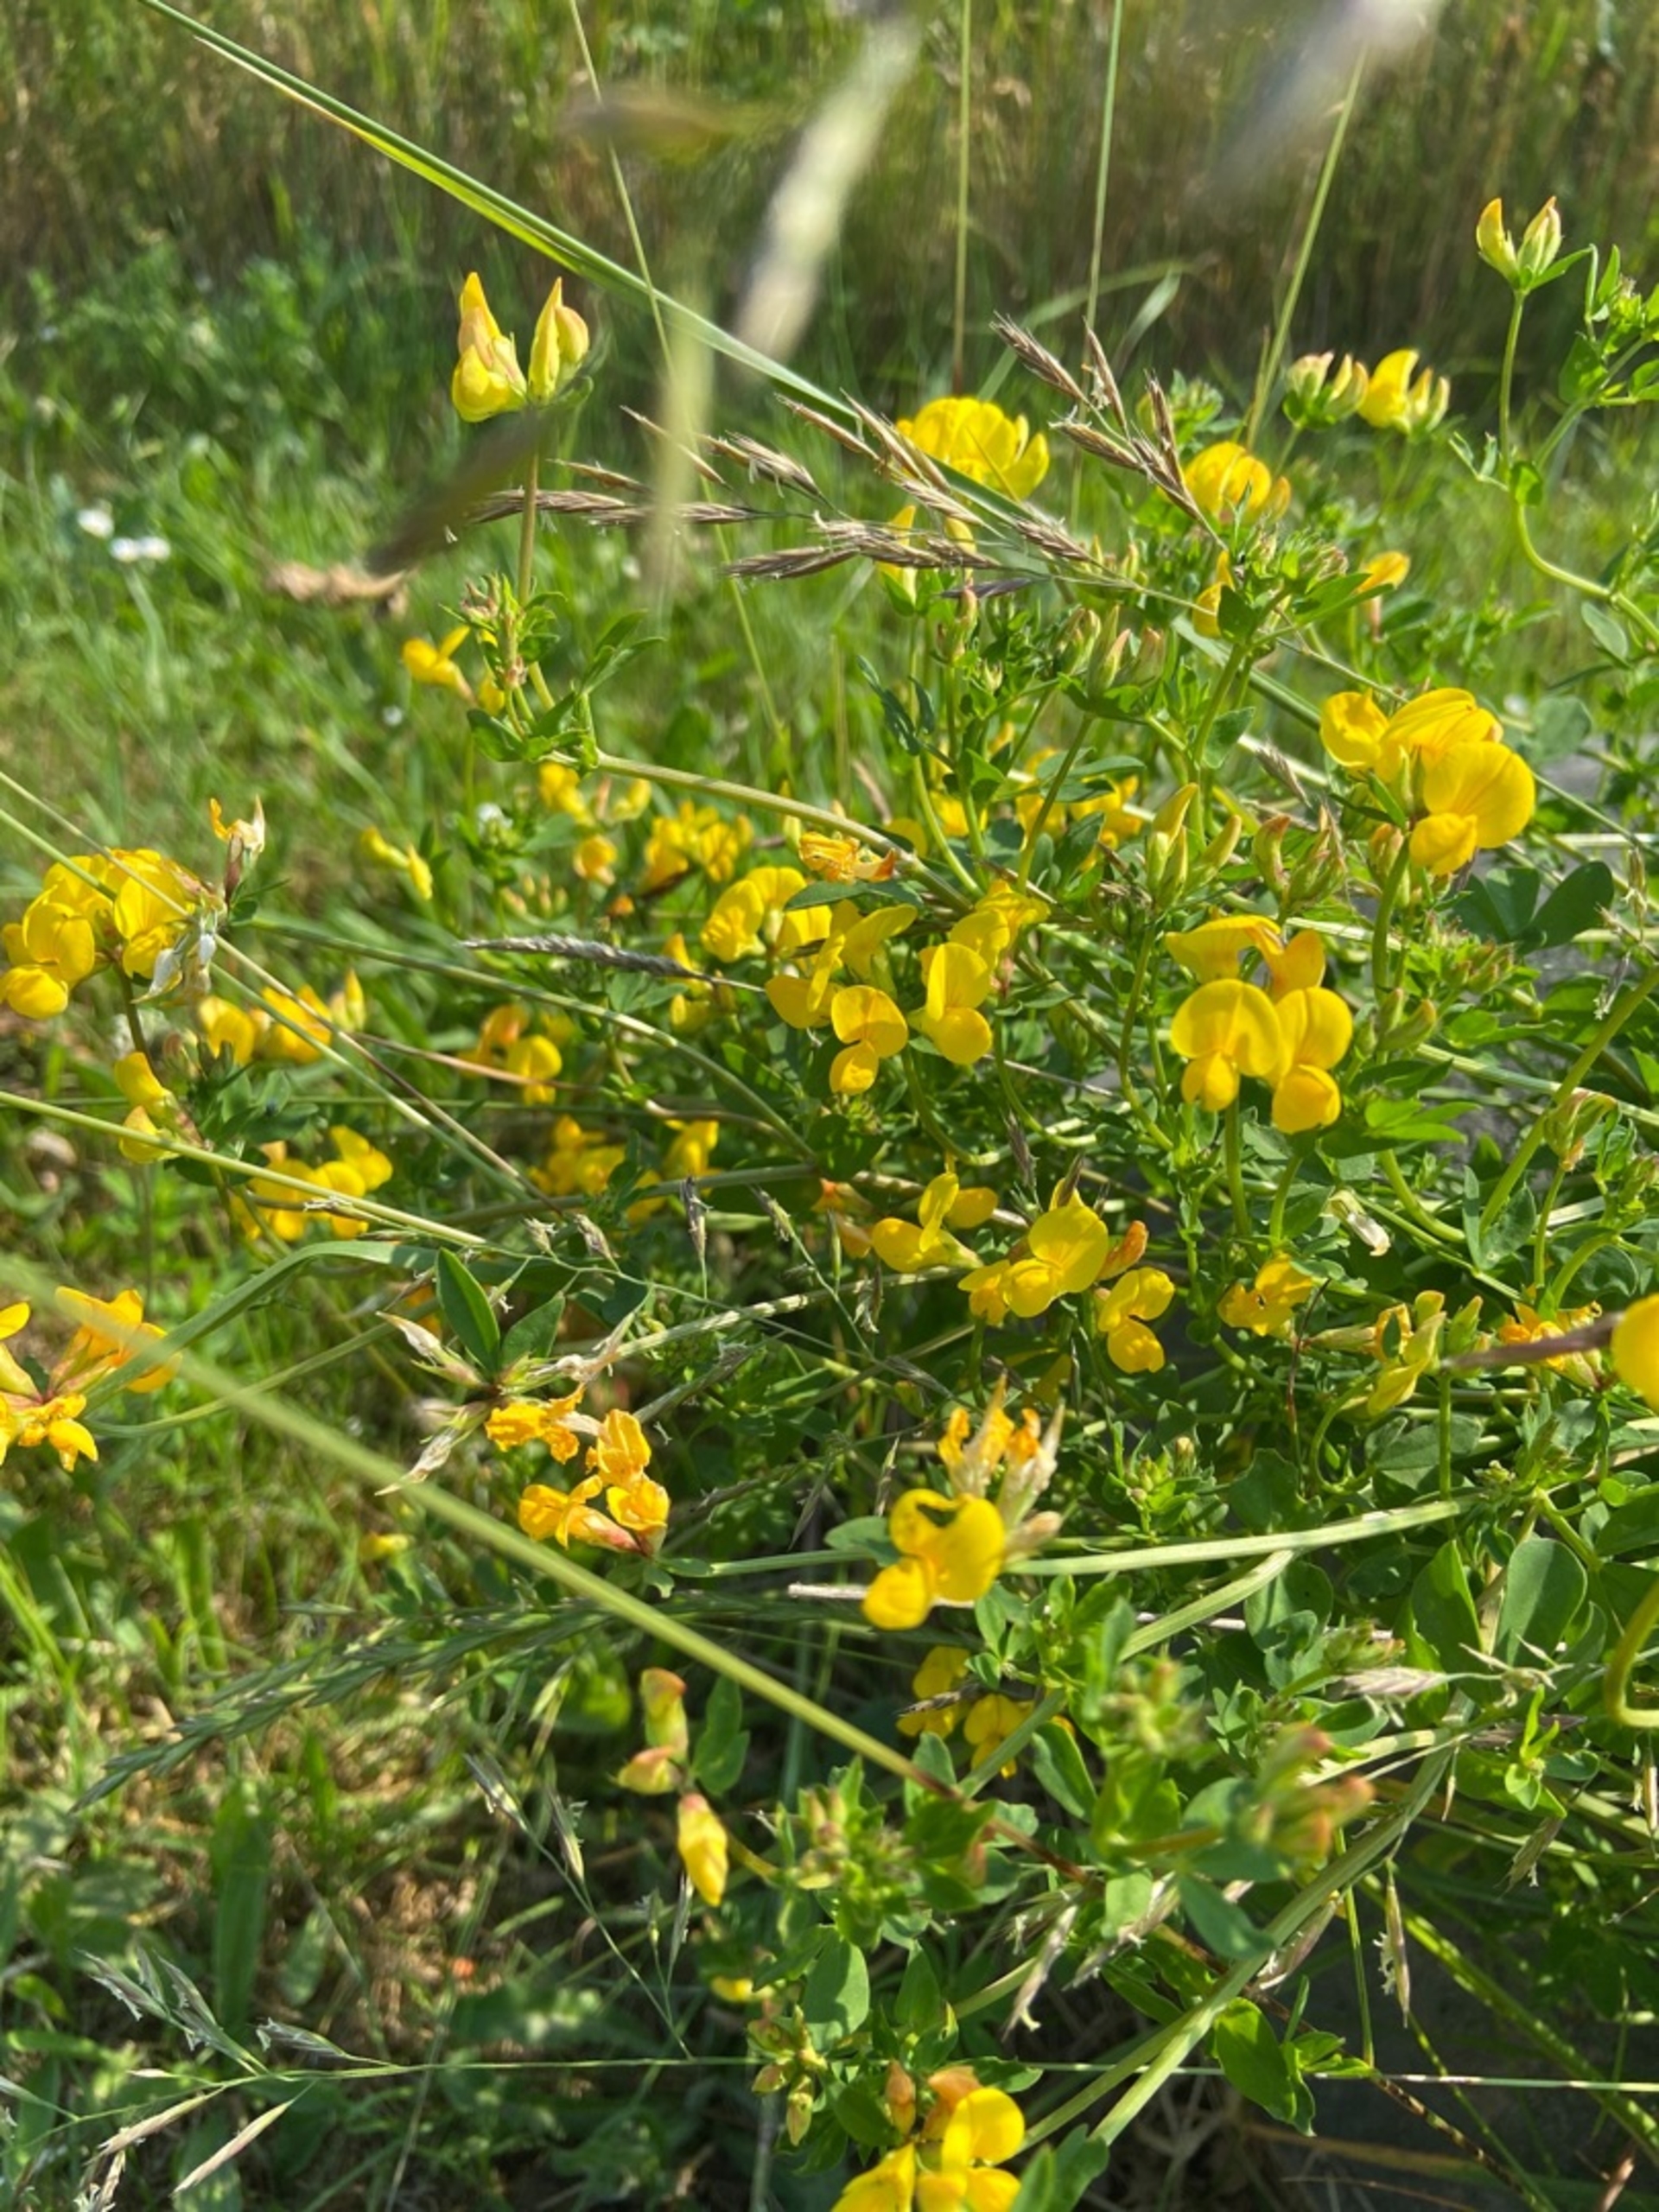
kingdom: Plantae
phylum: Tracheophyta
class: Magnoliopsida
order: Fabales
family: Fabaceae
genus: Lotus
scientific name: Lotus corniculatus
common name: Almindelig kællingetand
